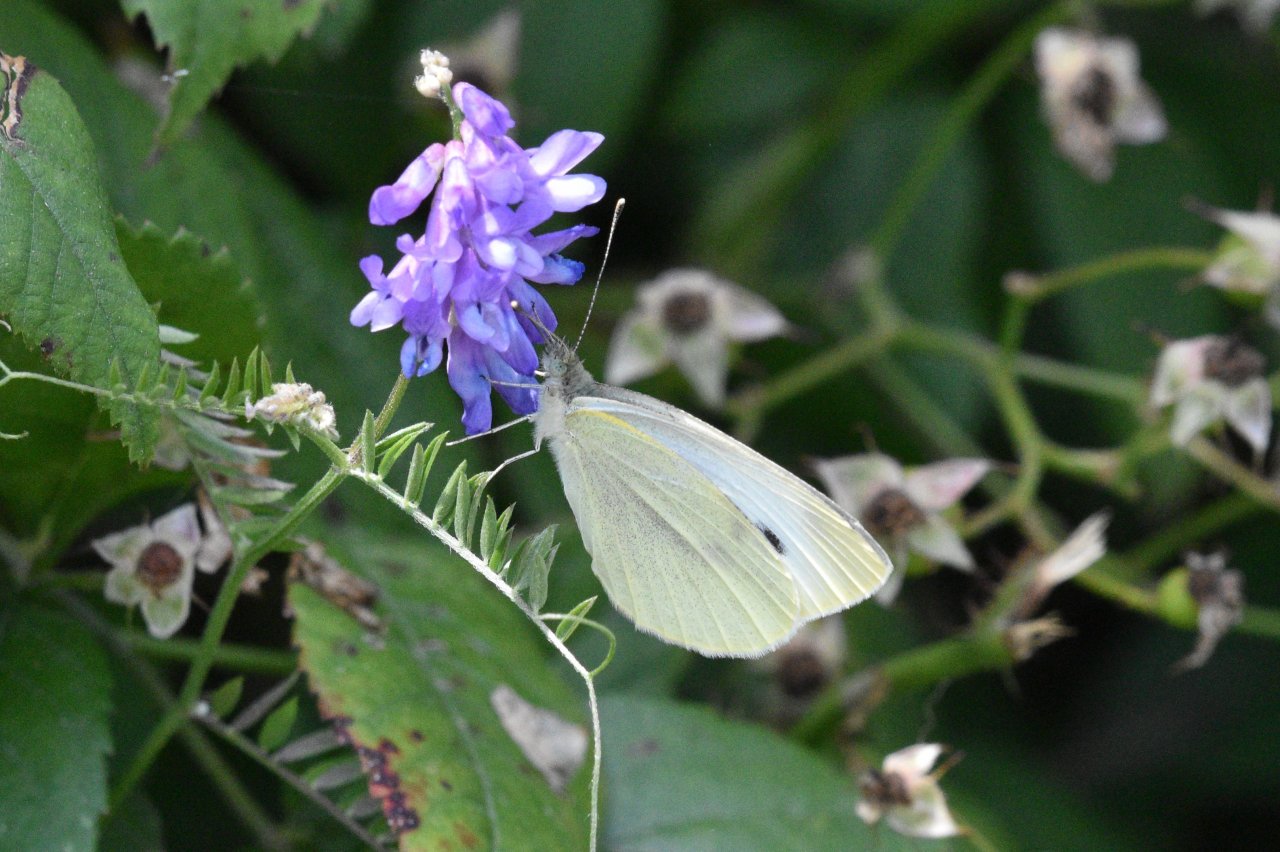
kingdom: Animalia
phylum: Arthropoda
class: Insecta
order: Lepidoptera
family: Pieridae
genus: Pieris
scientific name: Pieris rapae
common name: Cabbage White
